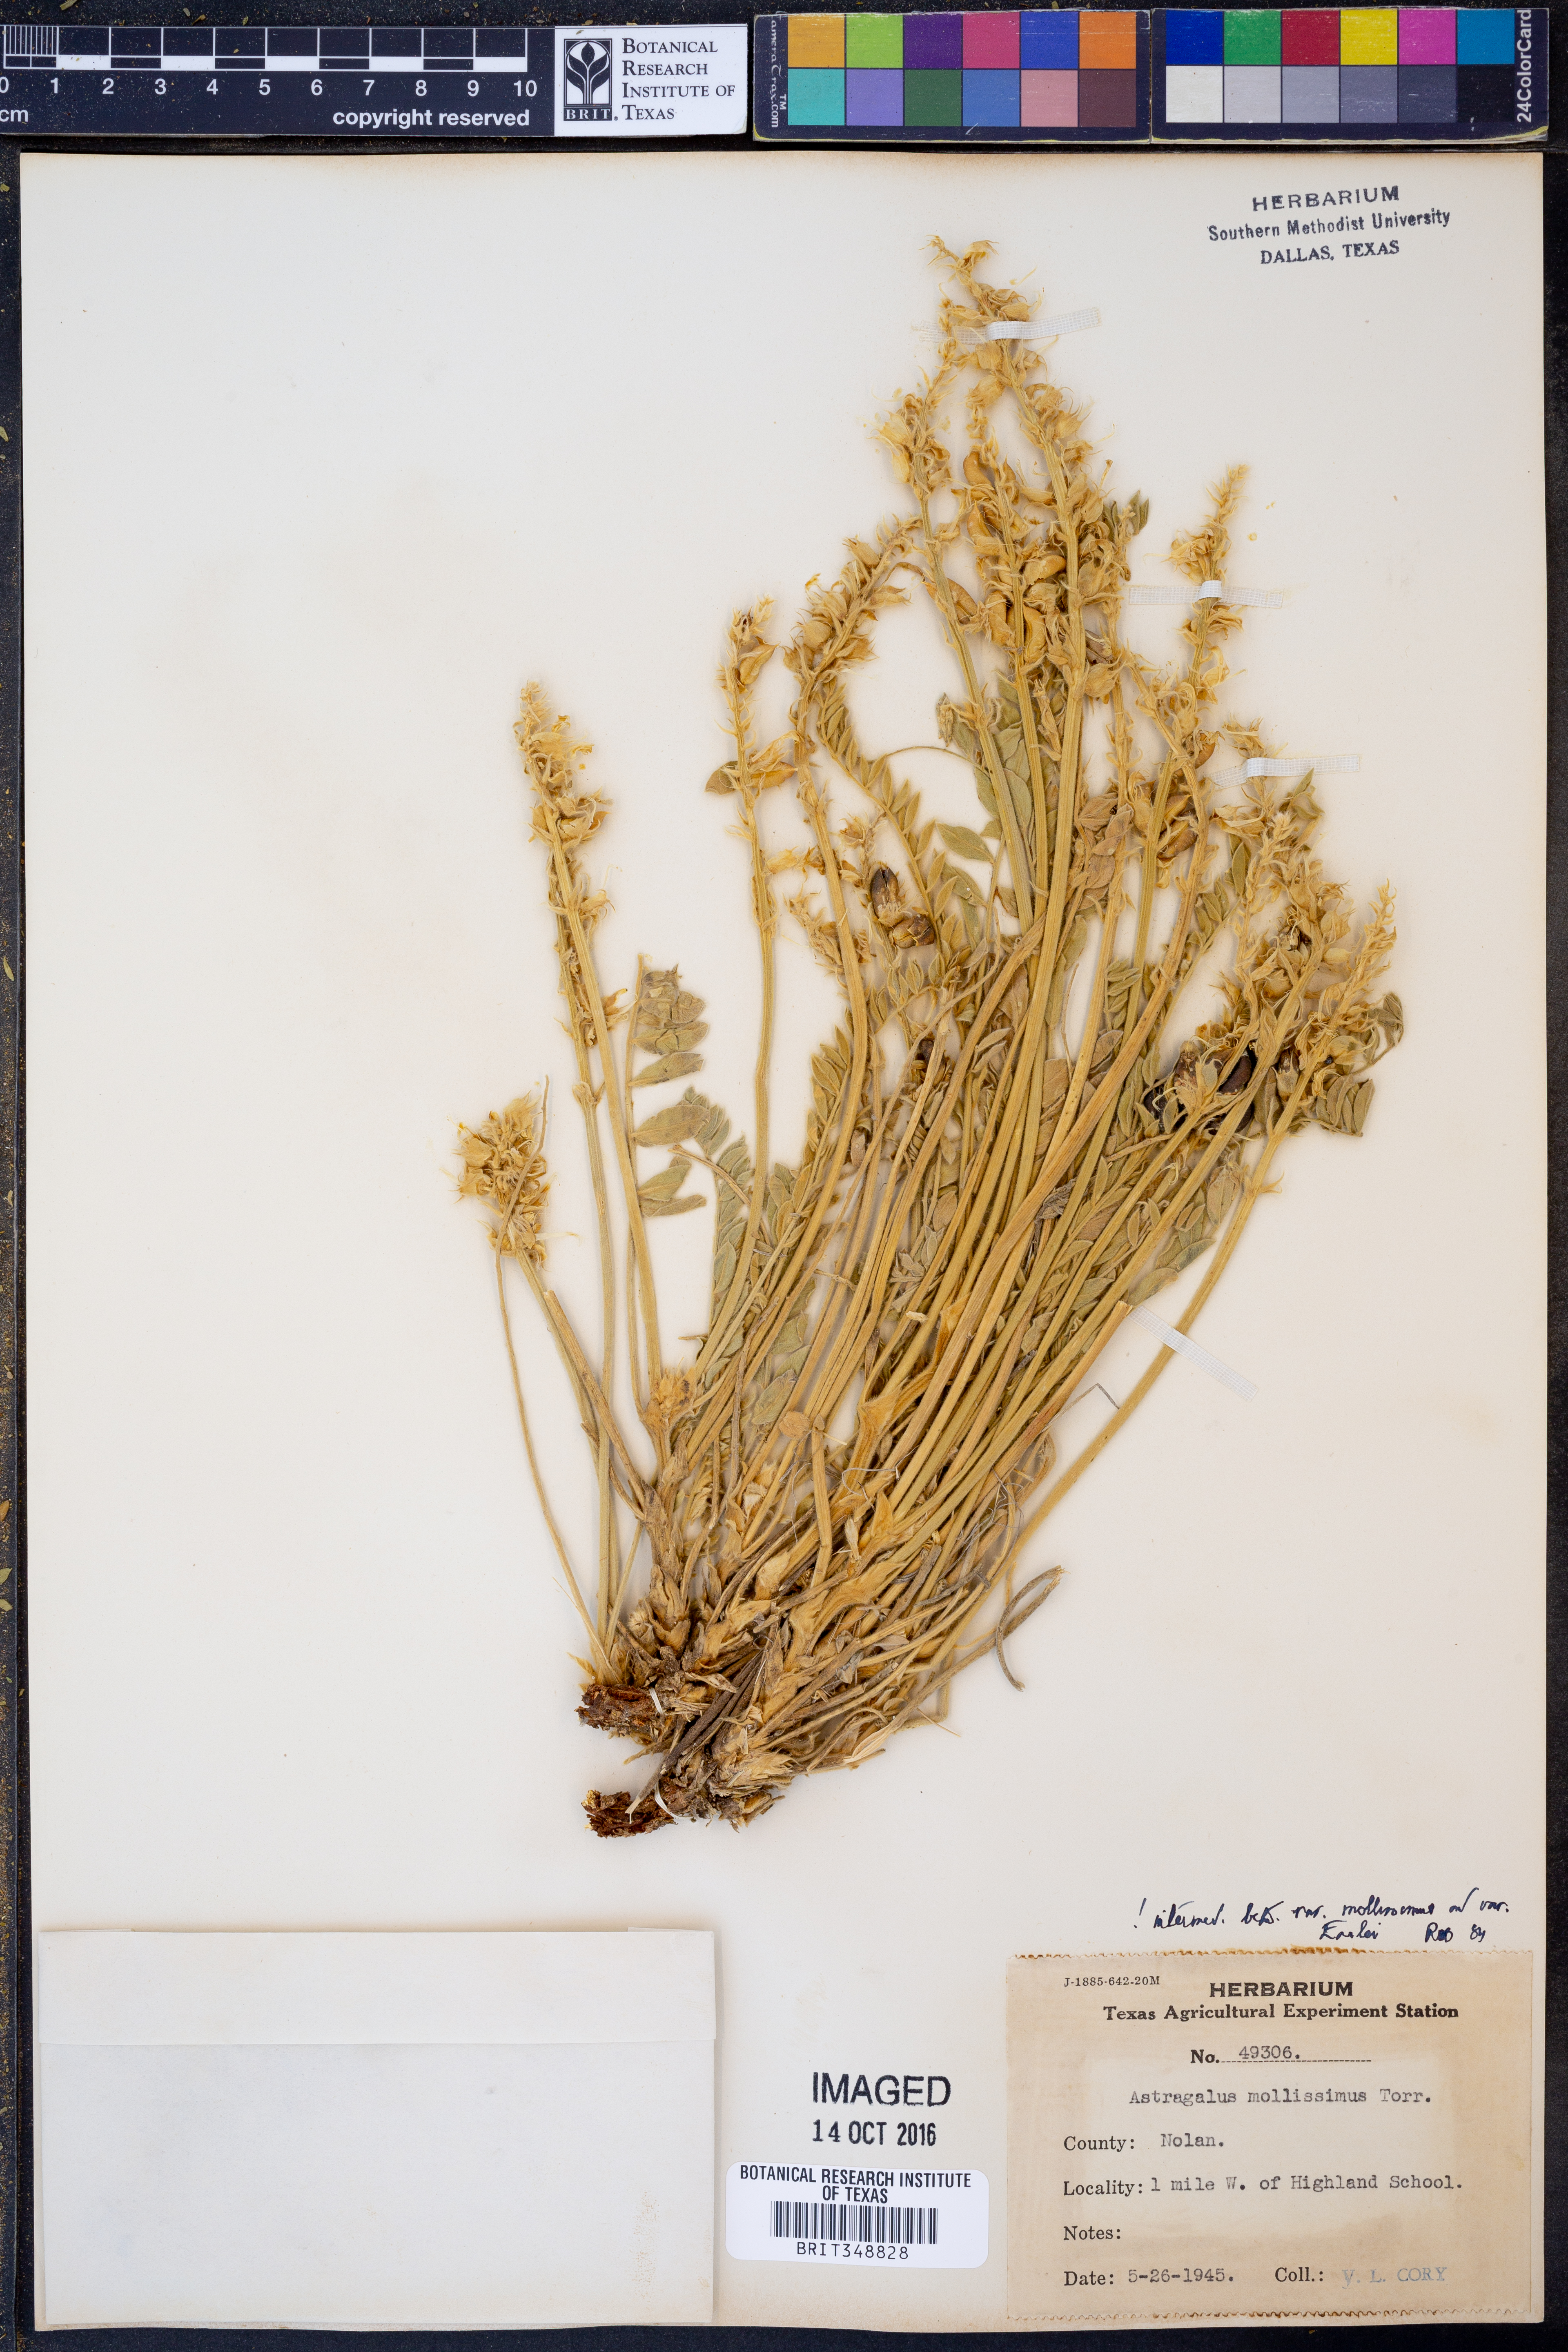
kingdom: Plantae
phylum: Tracheophyta
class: Magnoliopsida
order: Fabales
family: Fabaceae
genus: Astragalus
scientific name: Astragalus mollissimus
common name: Woolly locoweed
